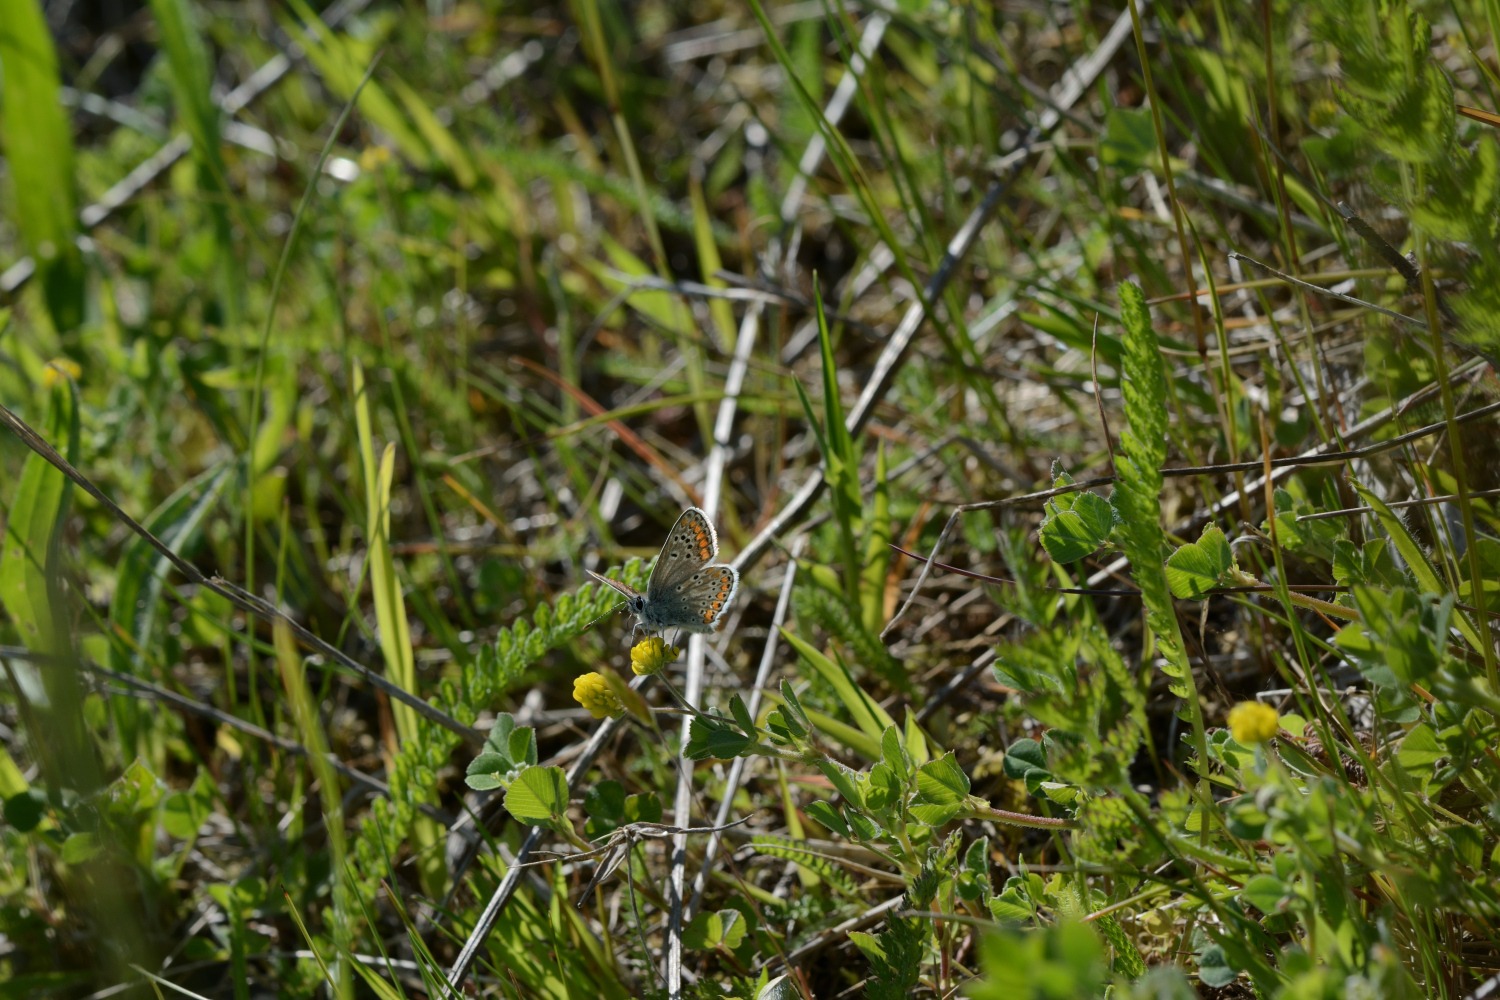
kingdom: Animalia
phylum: Arthropoda
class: Insecta
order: Lepidoptera
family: Lycaenidae
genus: Aricia
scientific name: Aricia agestis
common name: Rødplettet blåfugl
